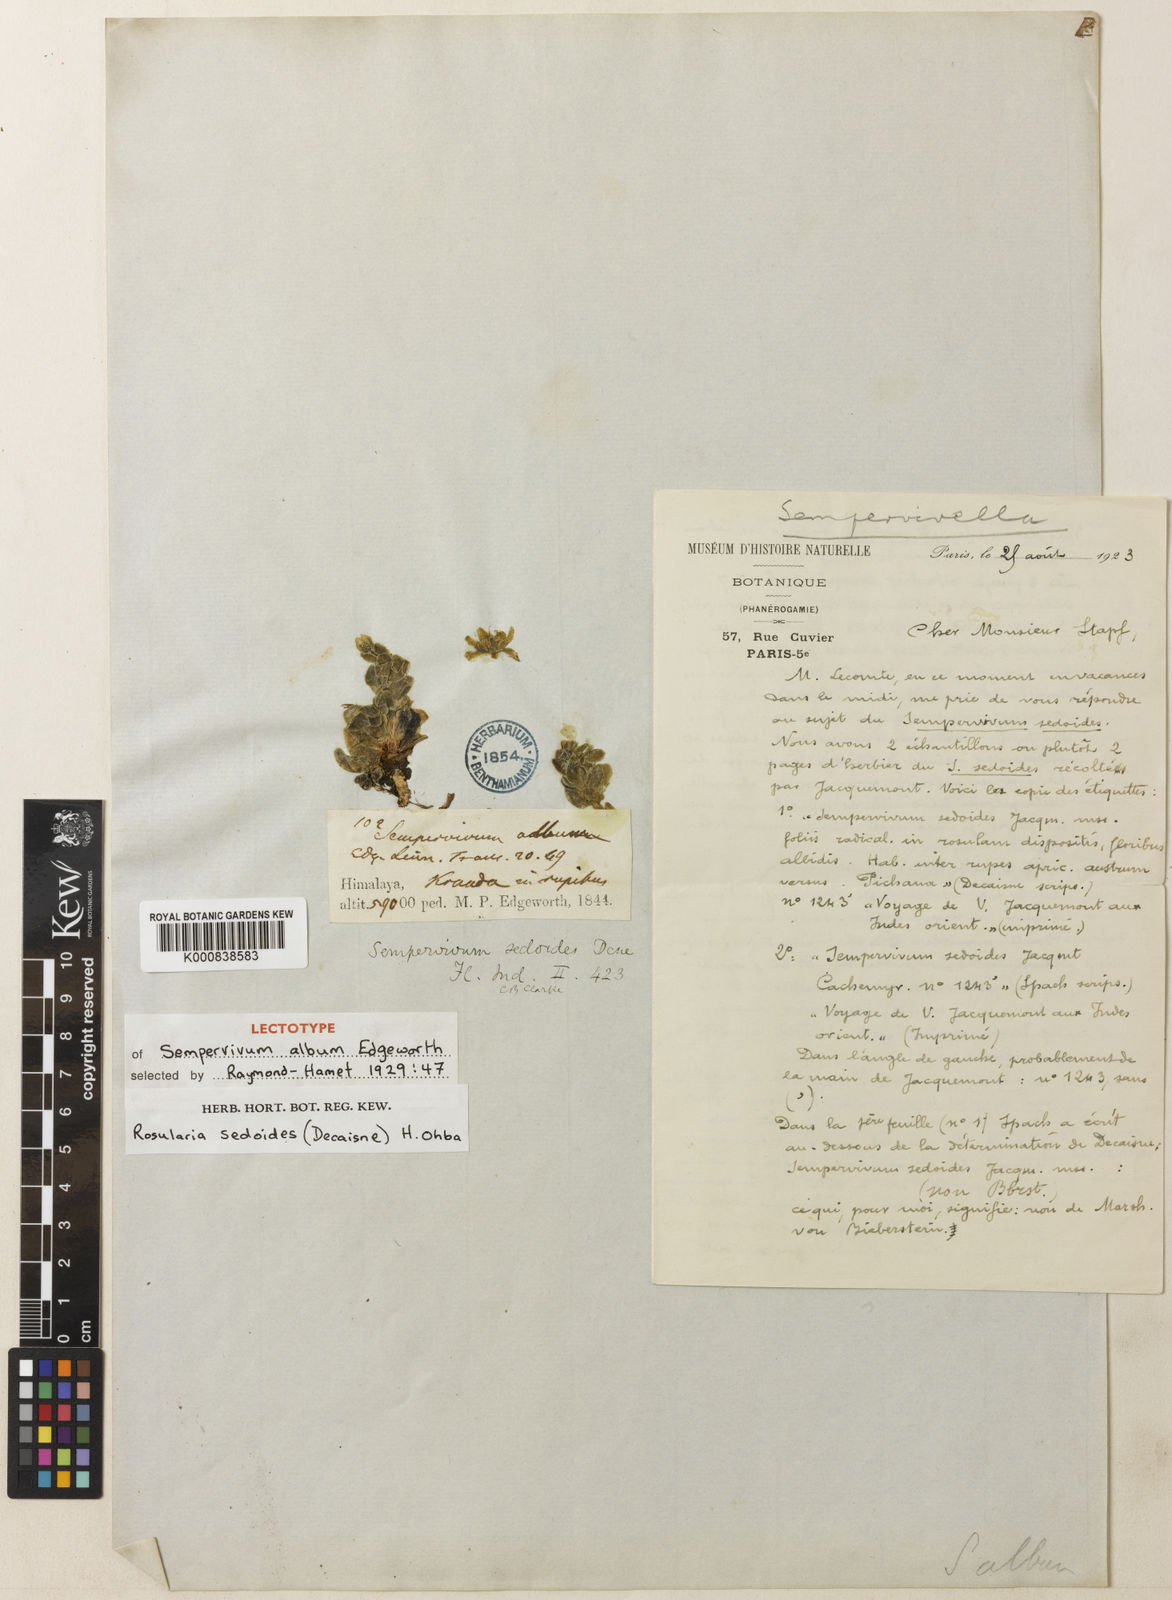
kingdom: Plantae
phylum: Tracheophyta
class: Magnoliopsida
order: Saxifragales
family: Crassulaceae
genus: Rosularia
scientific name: Rosularia sedoides
